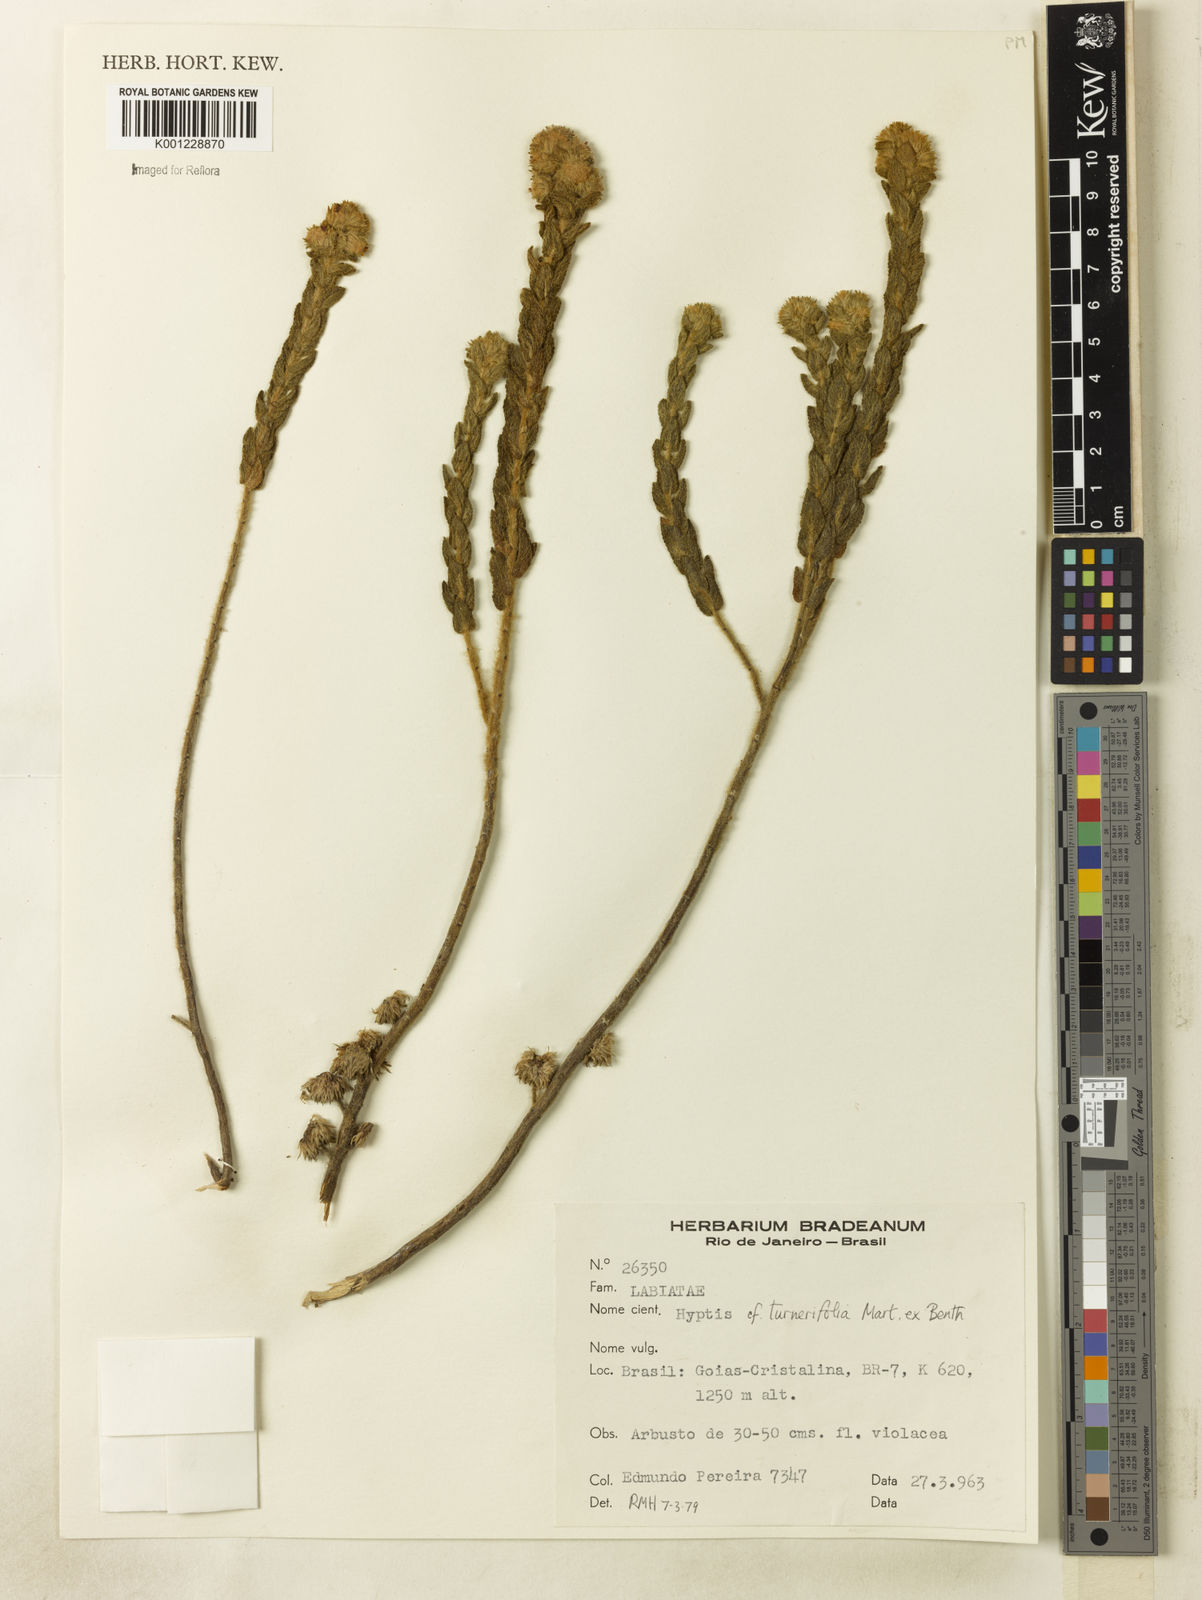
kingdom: Plantae
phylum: Tracheophyta
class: Magnoliopsida
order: Lamiales
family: Lamiaceae
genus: Hyptis
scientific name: Hyptis turnerifolia
